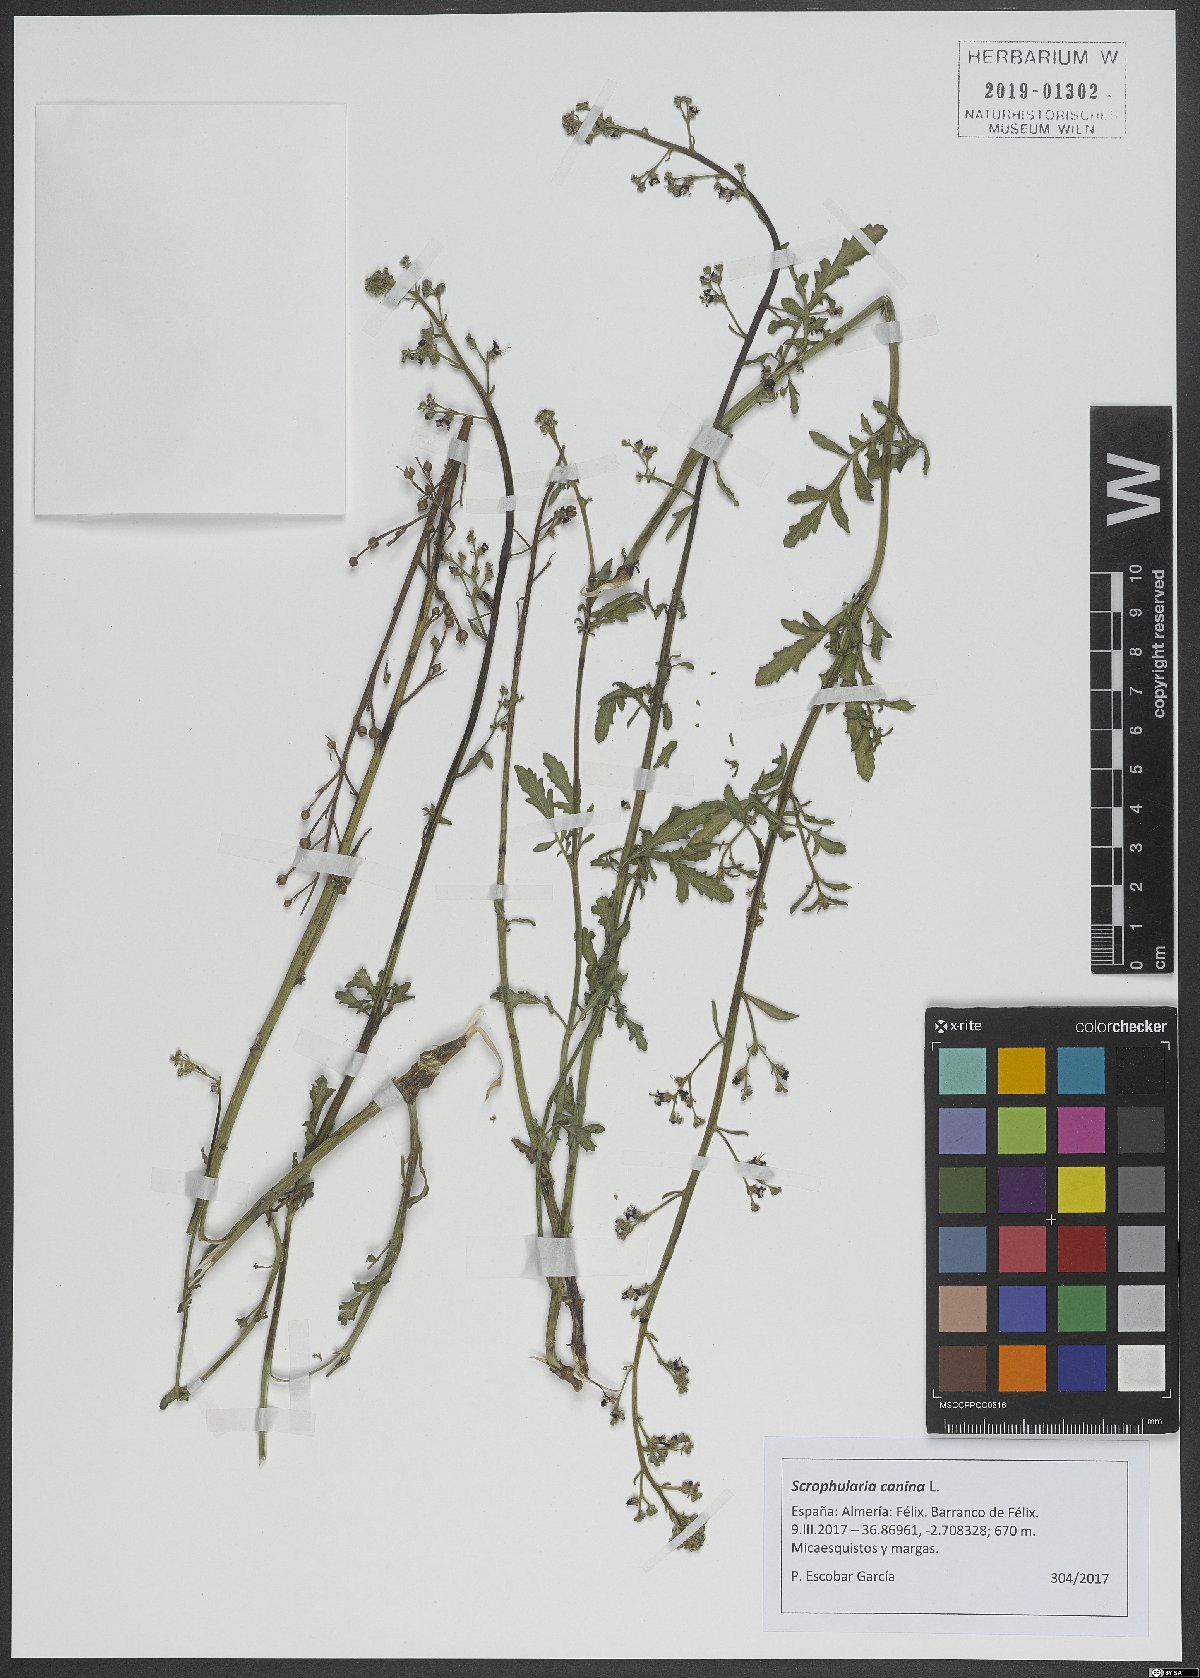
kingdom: Plantae
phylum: Tracheophyta
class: Magnoliopsida
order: Lamiales
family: Scrophulariaceae
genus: Scrophularia
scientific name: Scrophularia canina
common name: French figwort
